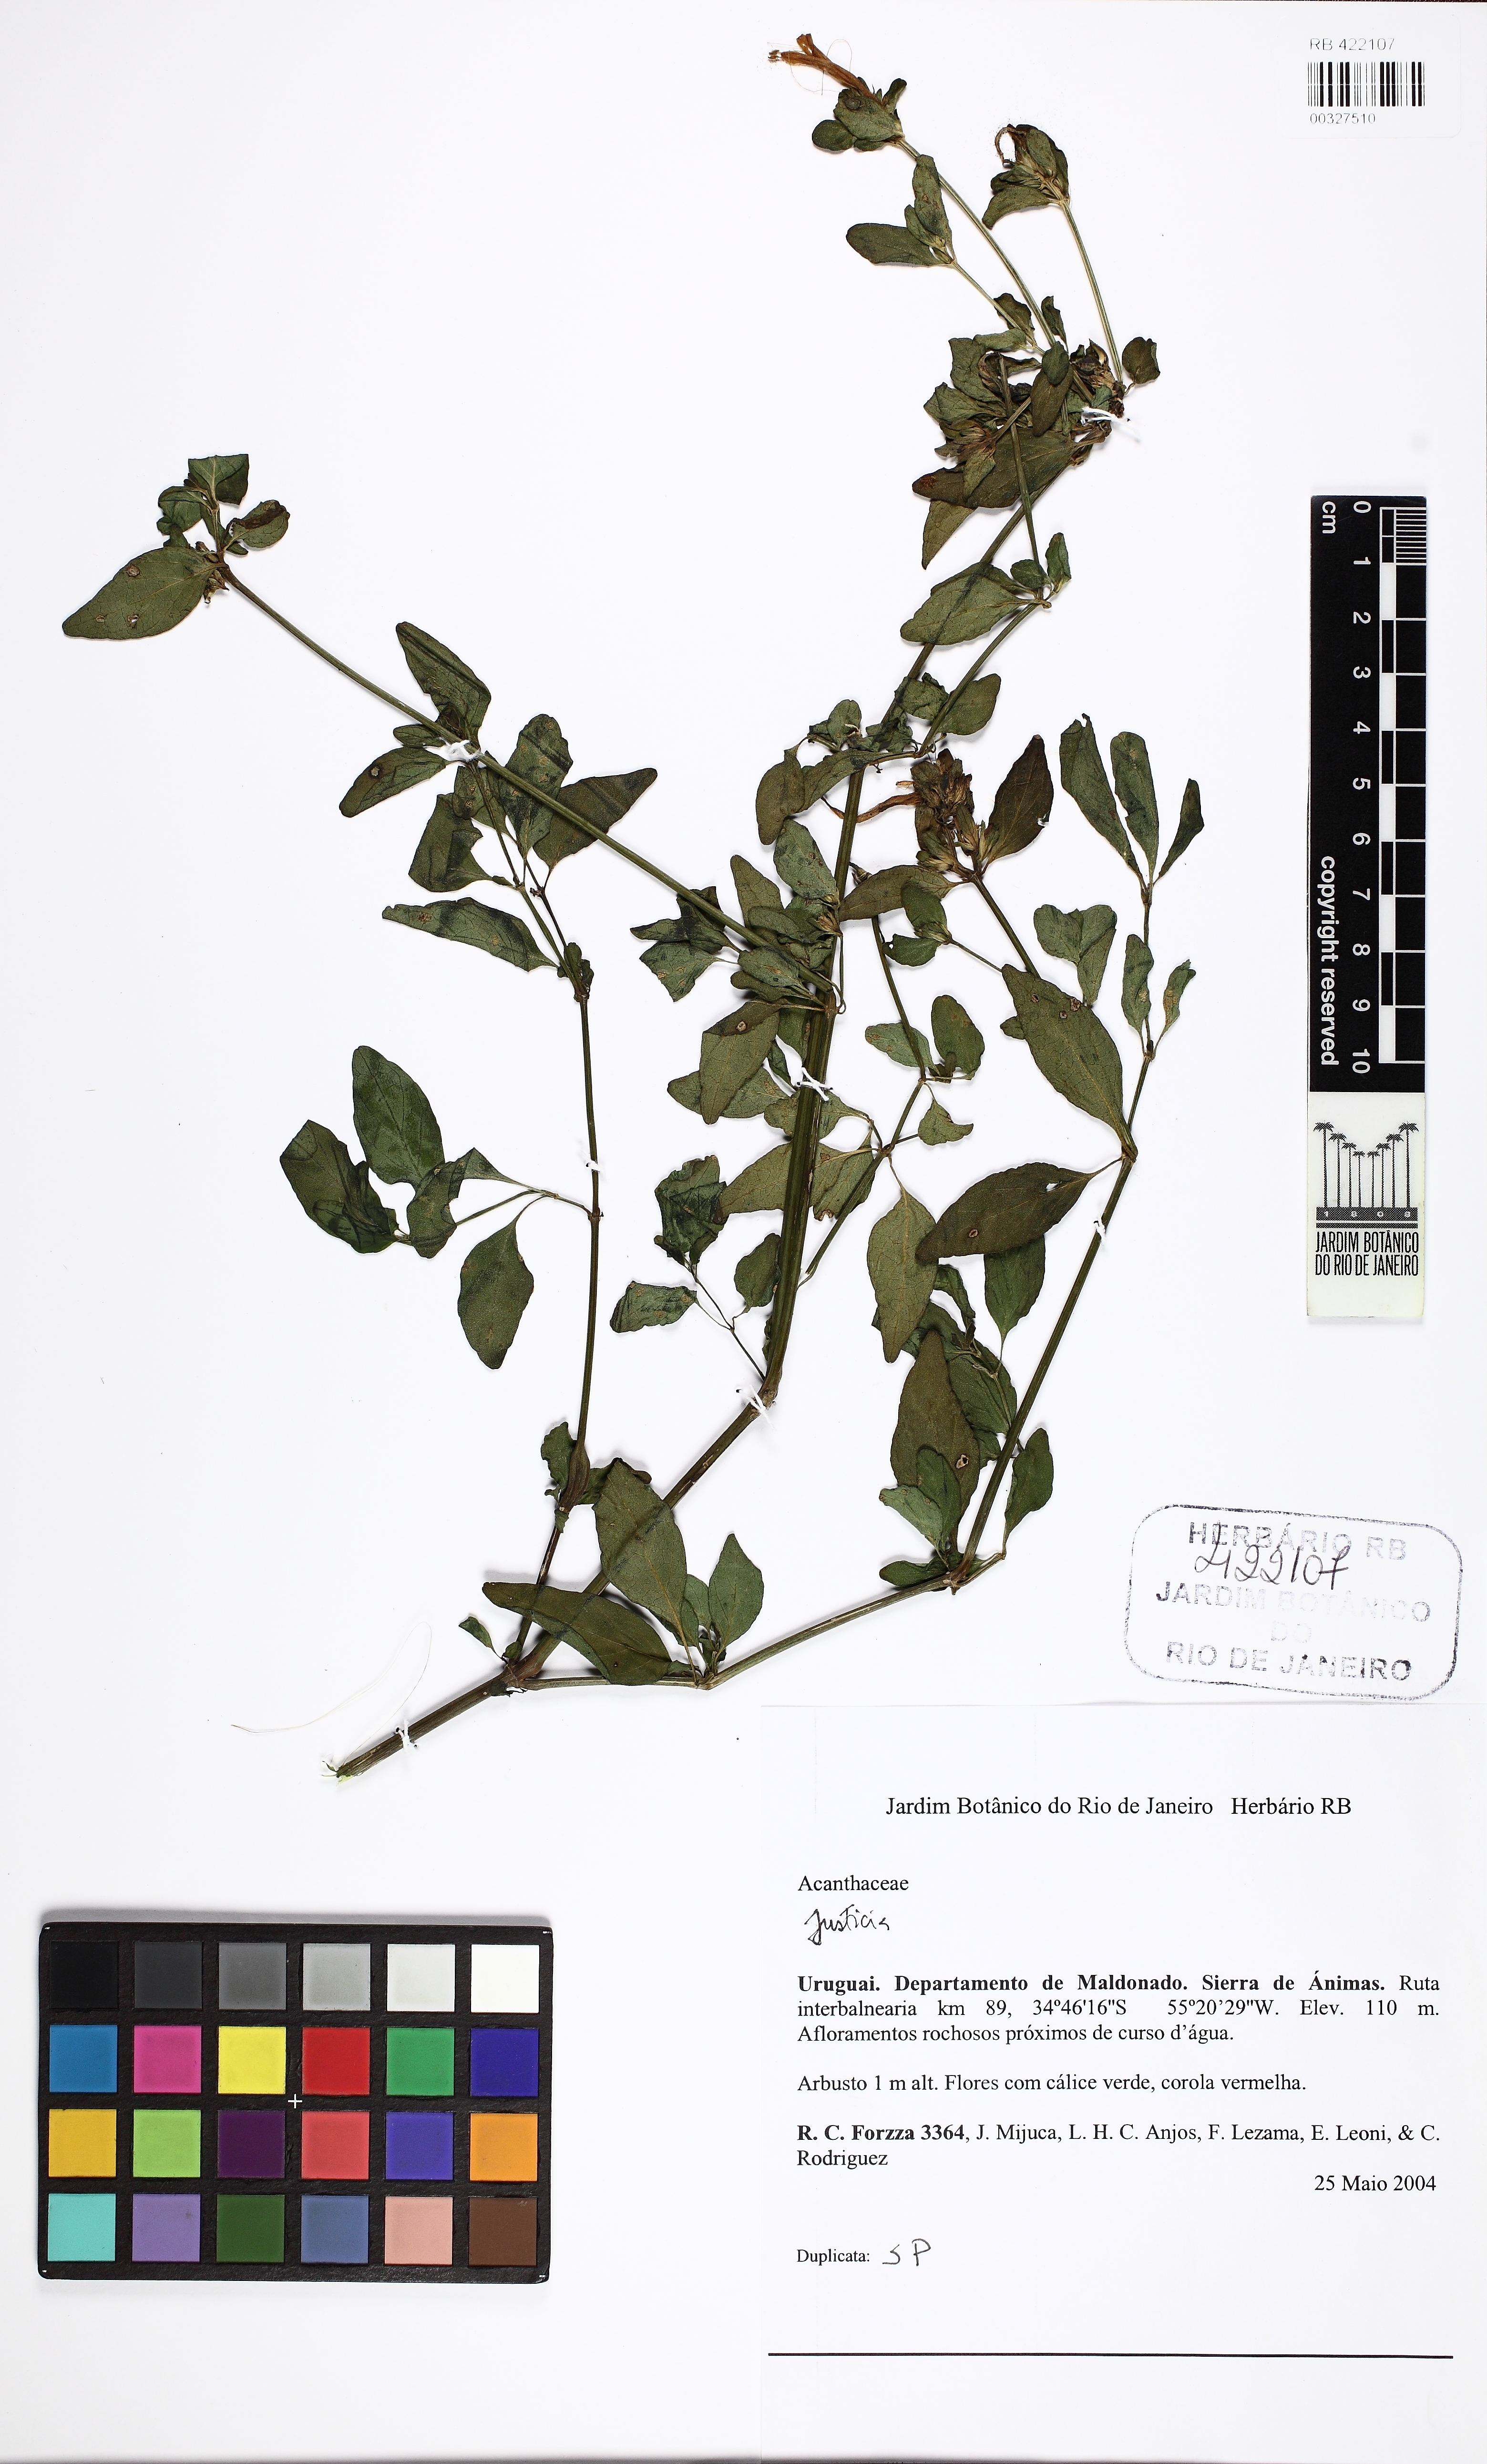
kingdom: Plantae
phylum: Tracheophyta
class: Magnoliopsida
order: Lamiales
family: Acanthaceae
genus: Justicia
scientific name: Justicia
